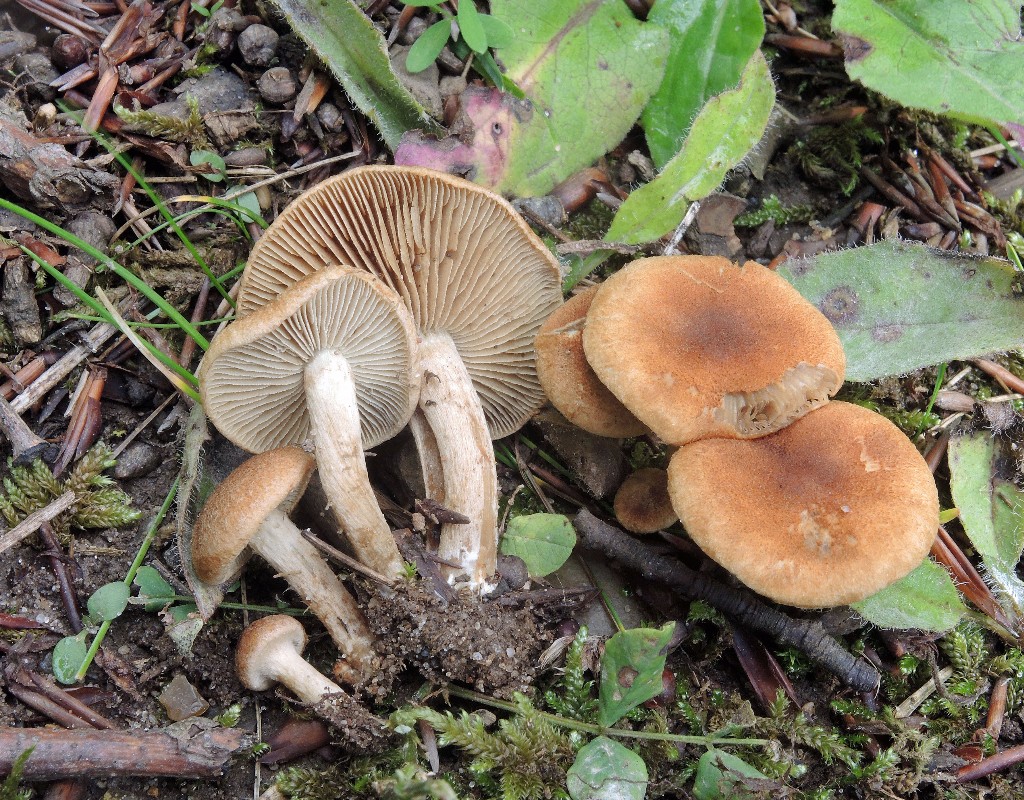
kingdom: Fungi
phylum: Basidiomycota
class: Agaricomycetes
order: Agaricales
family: Inocybaceae
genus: Inocybe
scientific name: Inocybe dulcamara
